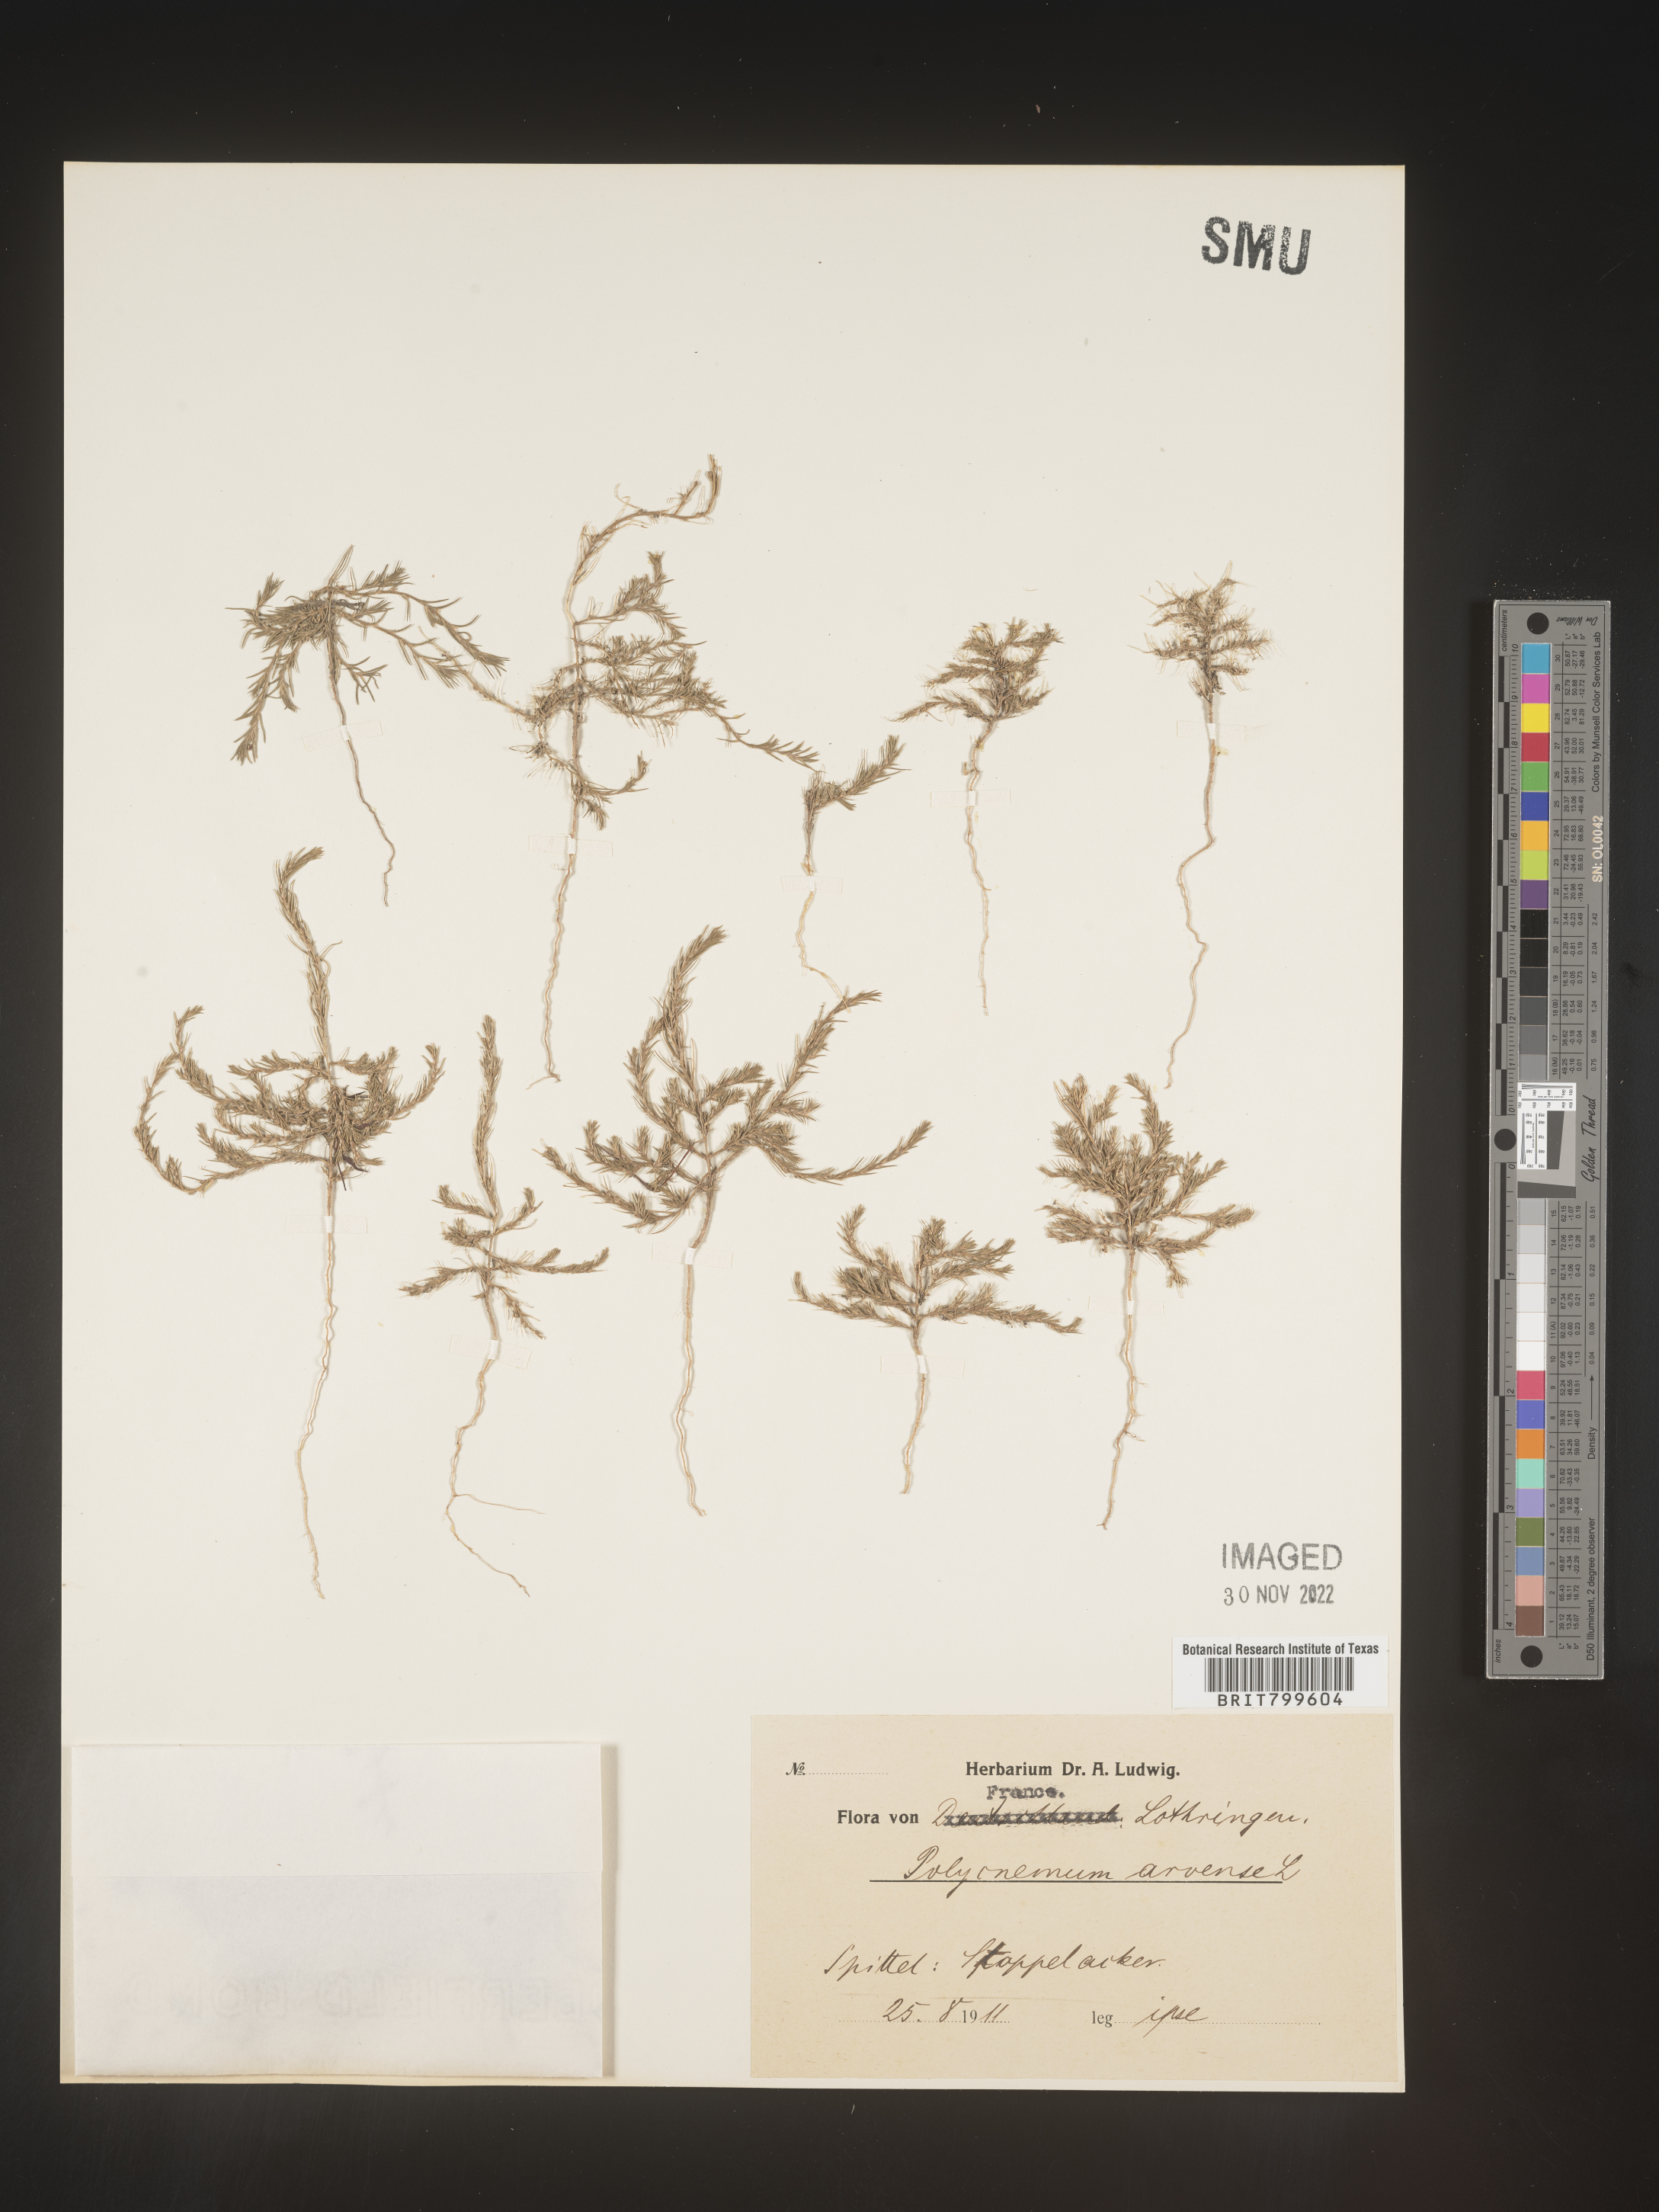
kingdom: Plantae
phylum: Tracheophyta
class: Magnoliopsida
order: Caryophyllales
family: Amaranthaceae
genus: Polycnemum
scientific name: Polycnemum
